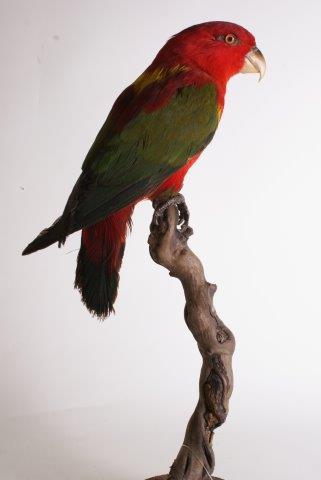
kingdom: Animalia
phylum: Chordata
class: Aves
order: Psittaciformes
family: Psittacidae
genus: Lorius
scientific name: Lorius garrulus
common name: Chattering lory
